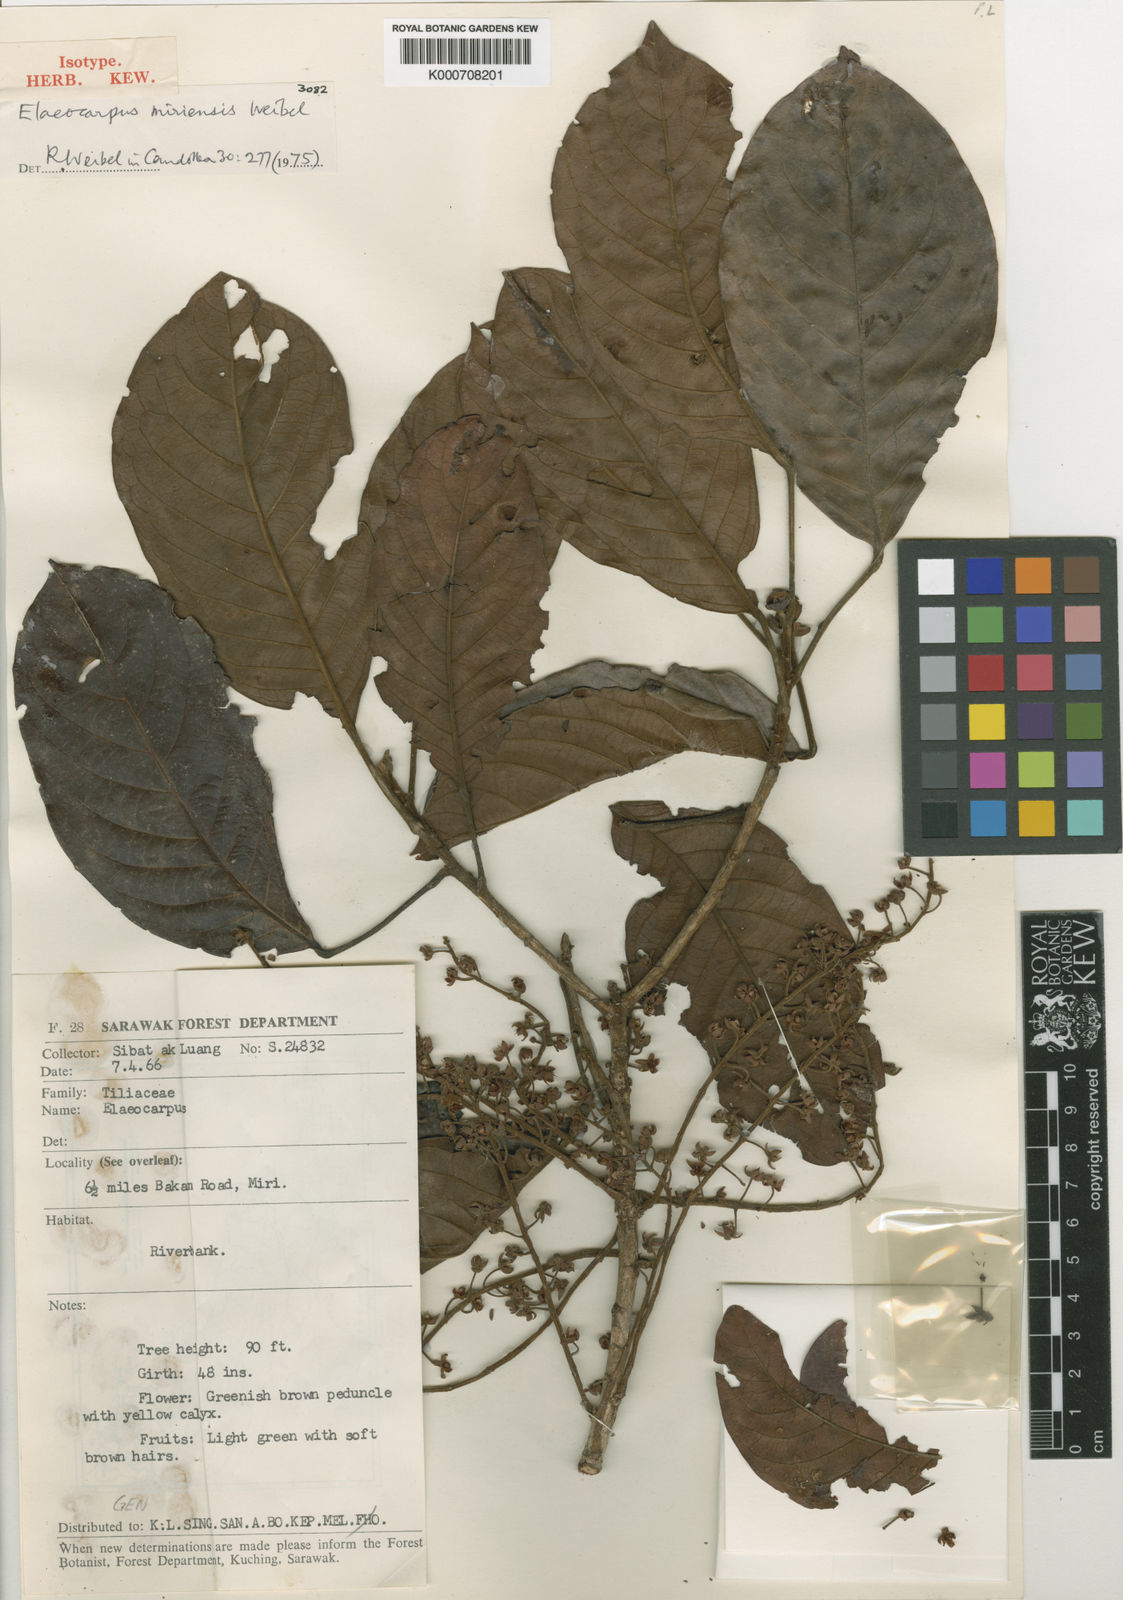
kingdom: Plantae
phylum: Tracheophyta
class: Magnoliopsida
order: Oxalidales
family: Elaeocarpaceae
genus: Elaeocarpus
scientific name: Elaeocarpus miriensis
